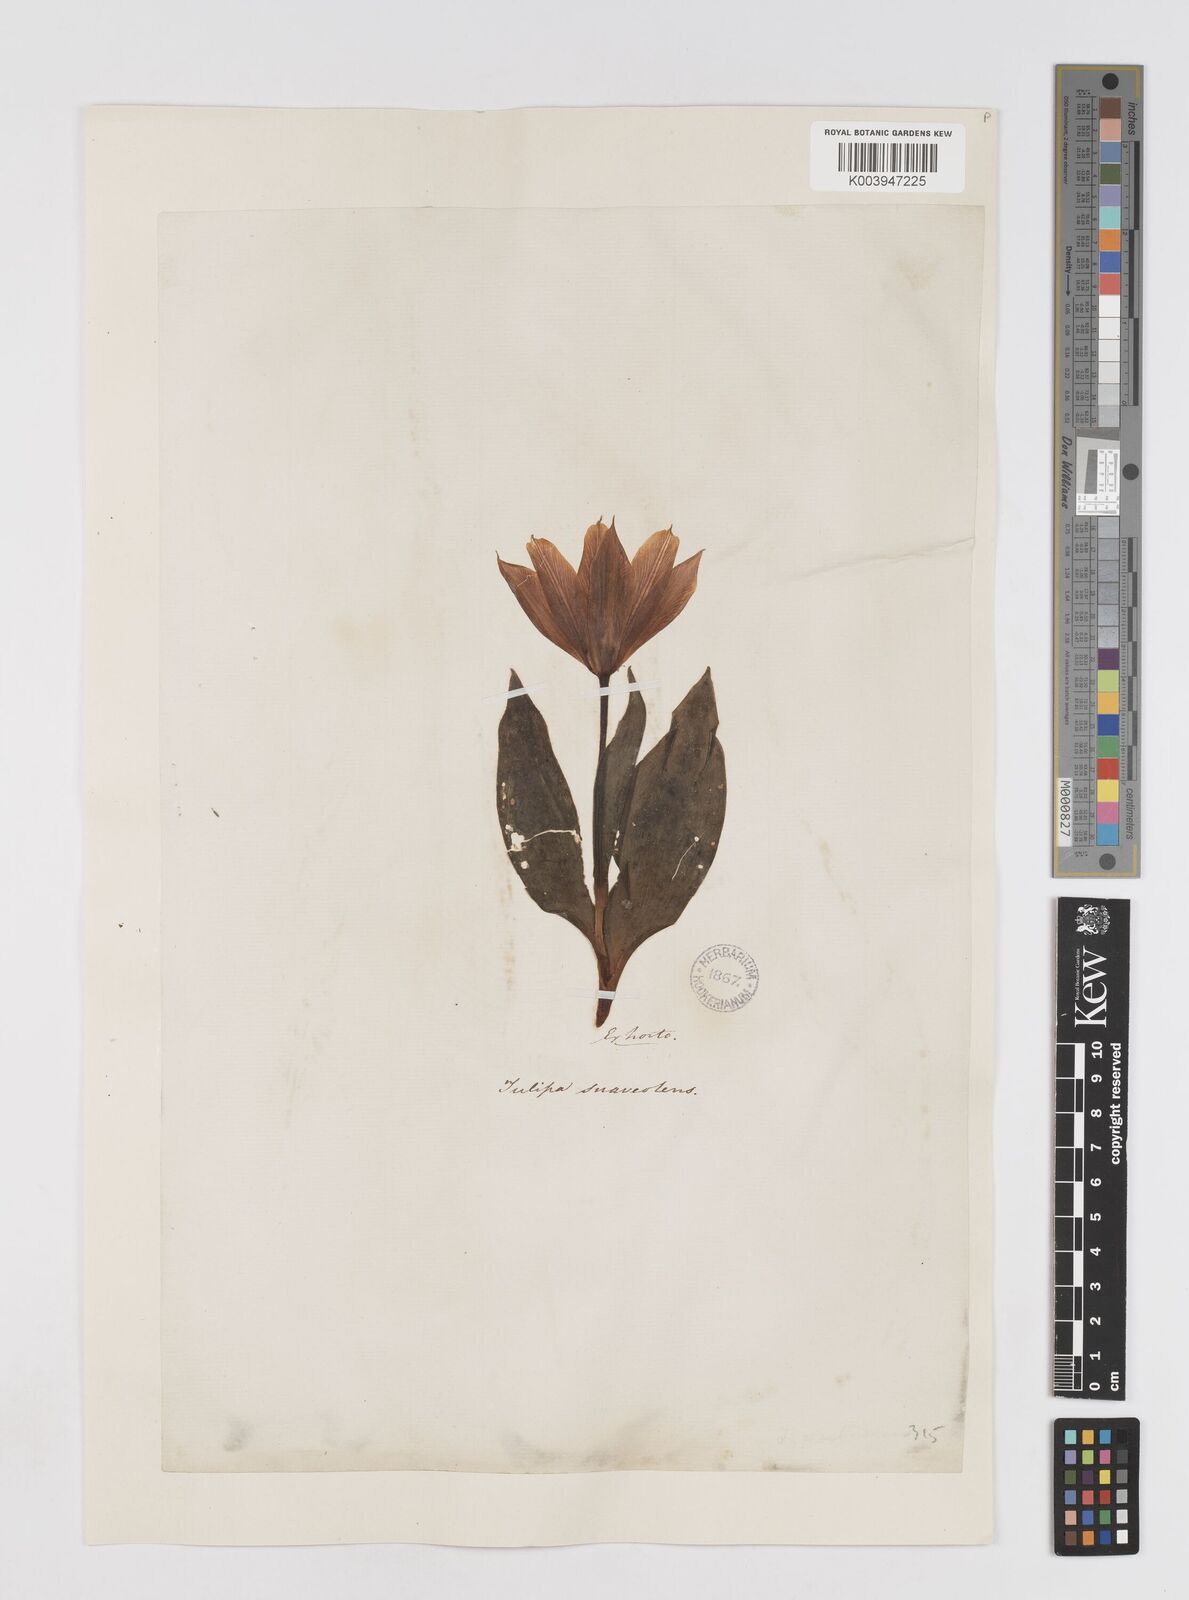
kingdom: Plantae
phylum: Tracheophyta
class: Liliopsida
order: Liliales
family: Liliaceae
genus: Tulipa
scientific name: Tulipa suaveolens
